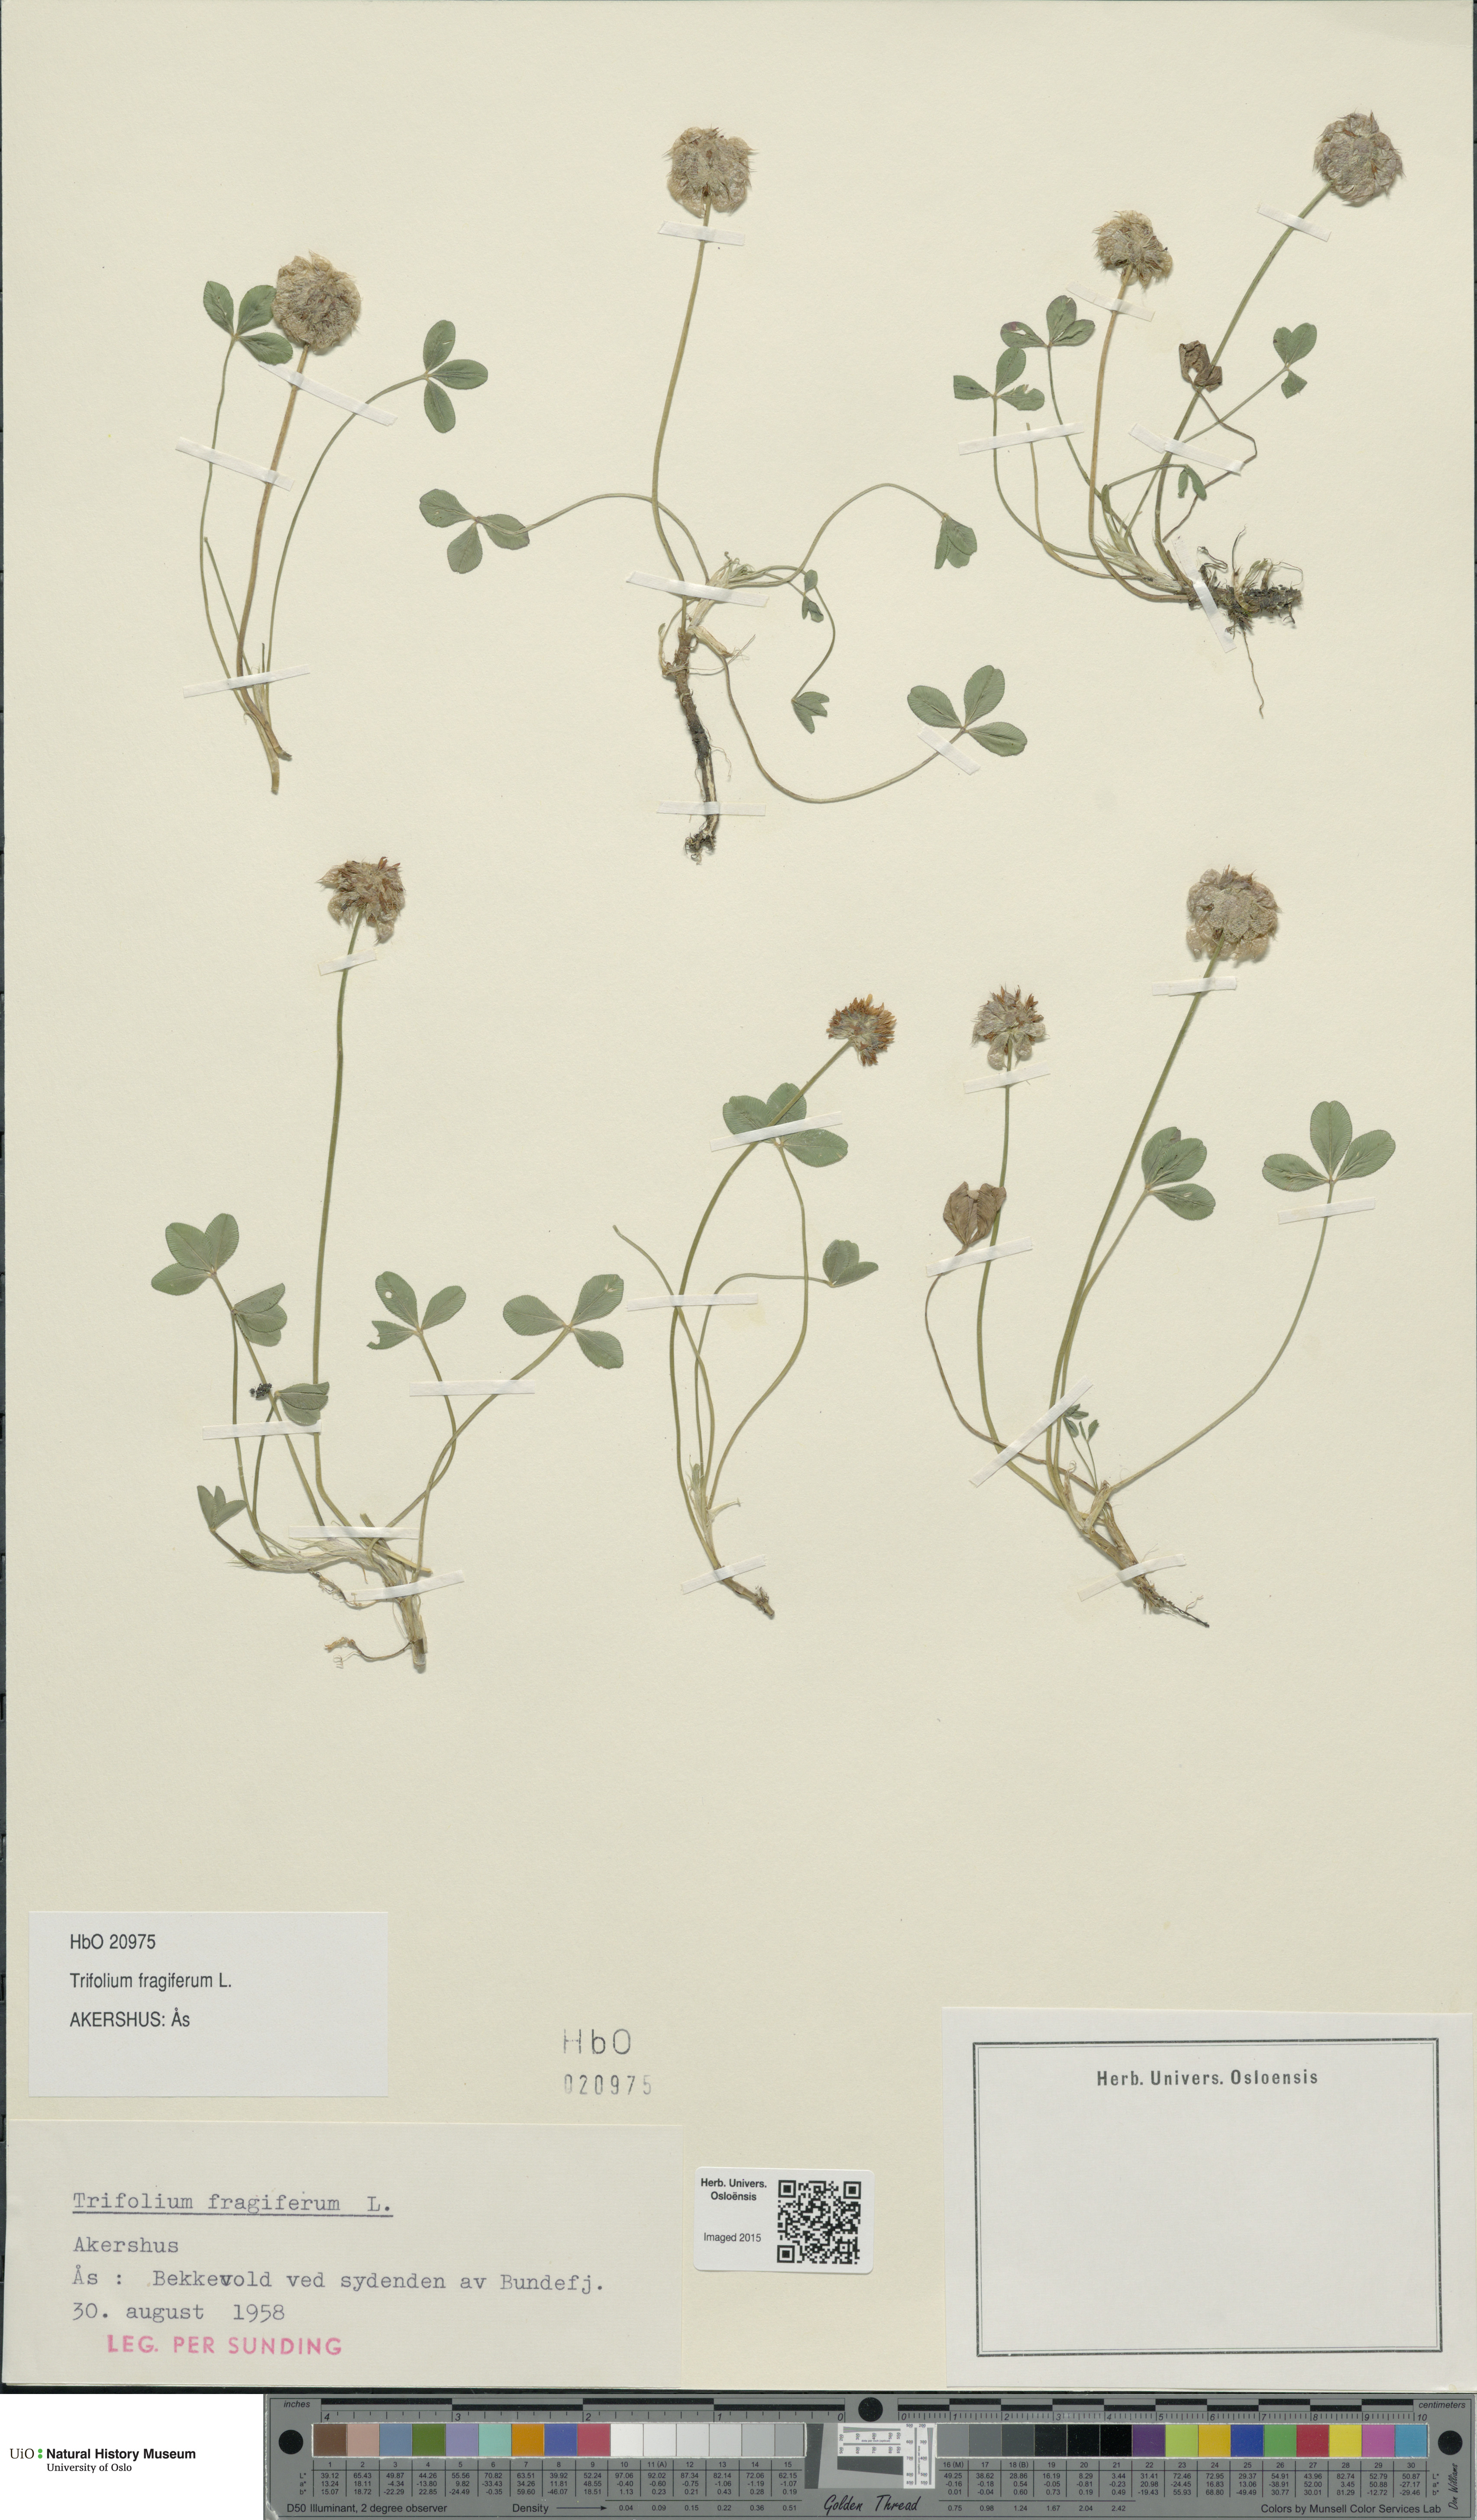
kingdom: Plantae
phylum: Tracheophyta
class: Magnoliopsida
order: Fabales
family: Fabaceae
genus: Trifolium
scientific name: Trifolium fragiferum
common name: Strawberry clover
